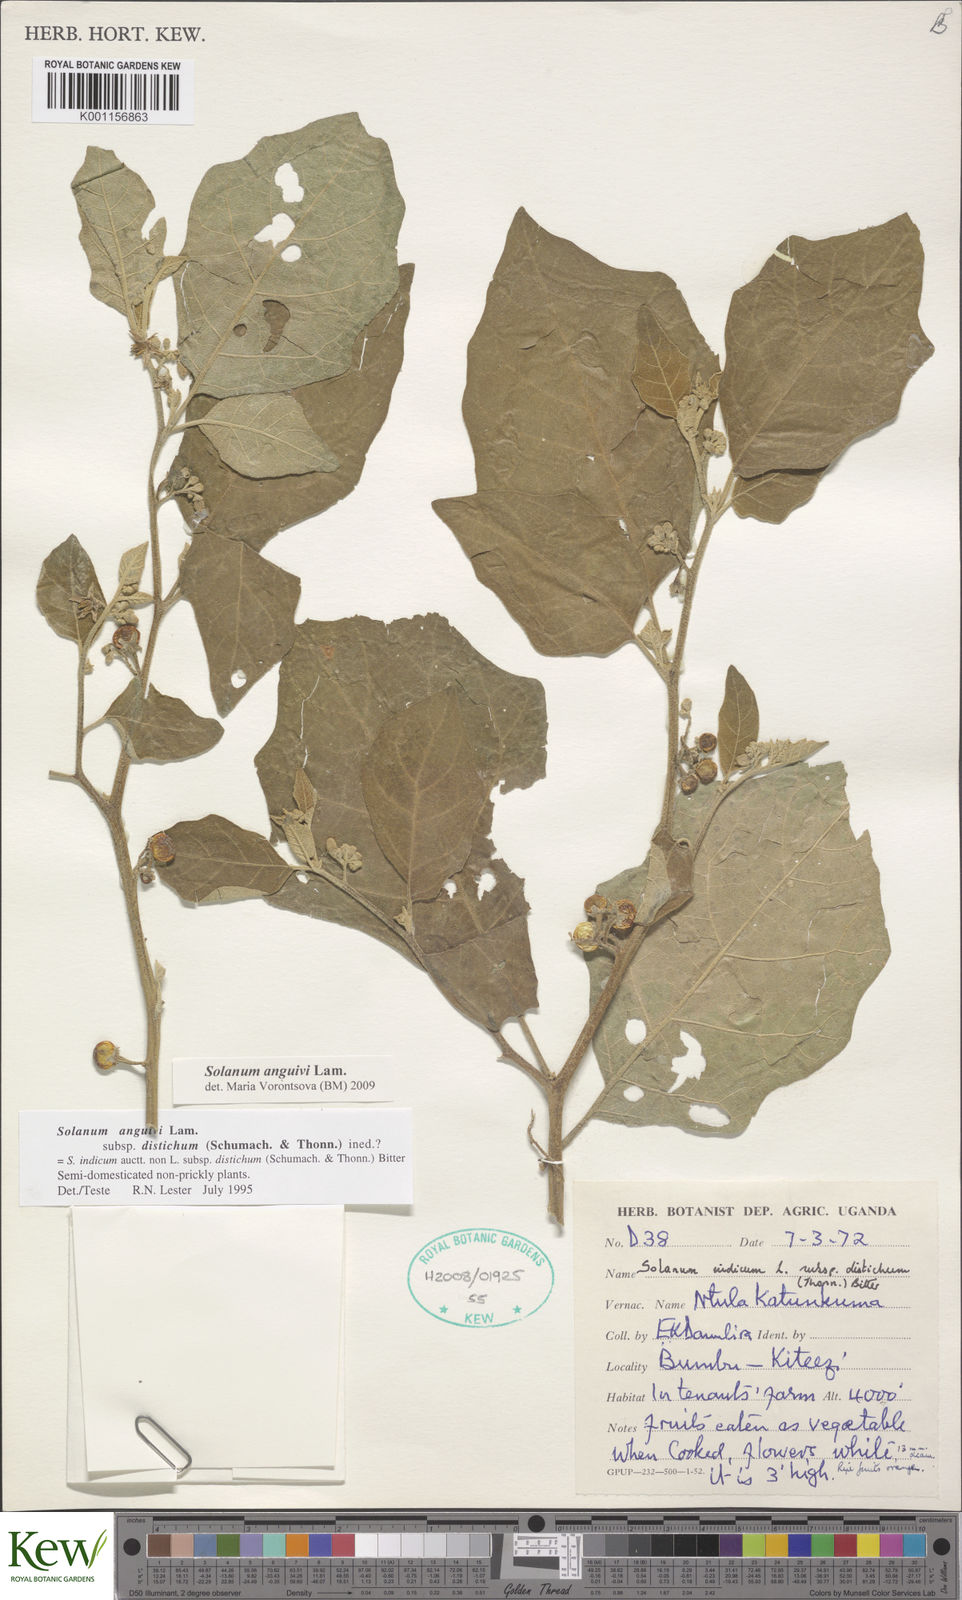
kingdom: Plantae
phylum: Tracheophyta
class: Magnoliopsida
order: Solanales
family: Solanaceae
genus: Solanum
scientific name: Solanum anguivi
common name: Forest bitterberry
